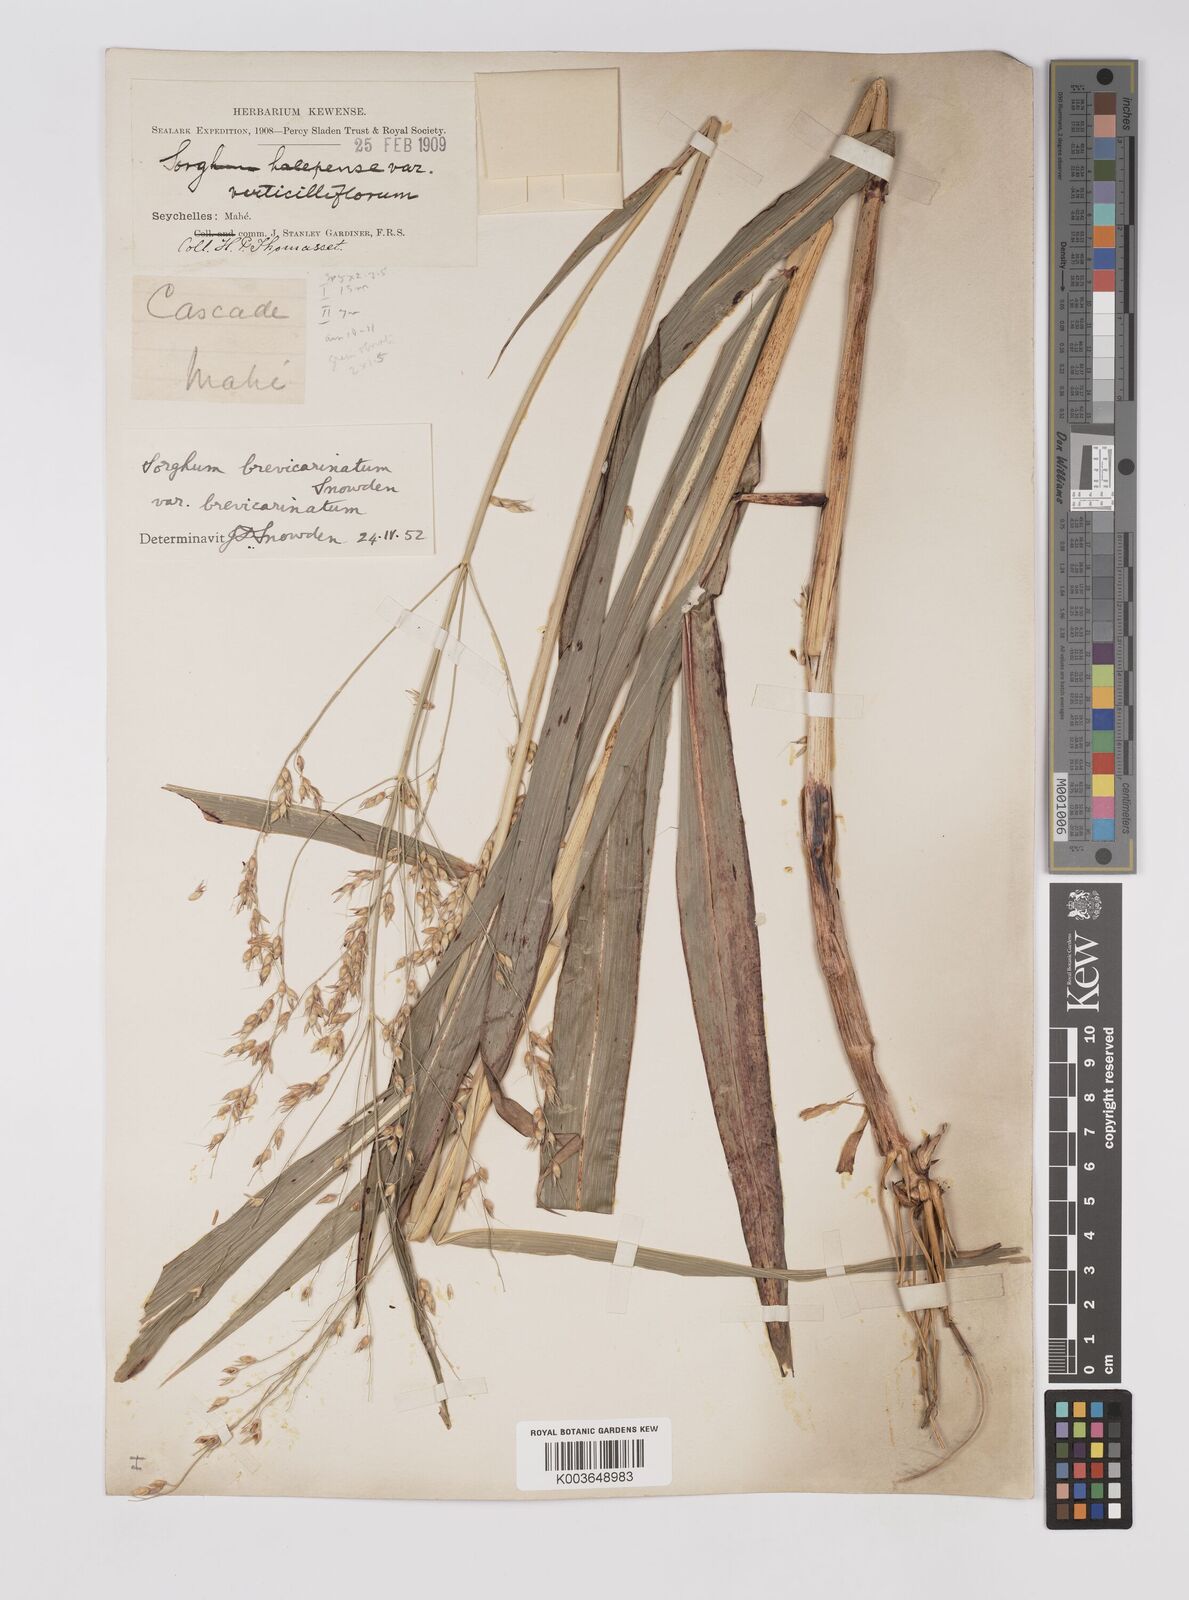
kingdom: Plantae
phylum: Tracheophyta
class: Liliopsida
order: Poales
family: Poaceae
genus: Sorghum
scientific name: Sorghum arundinaceum
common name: Sorghum
